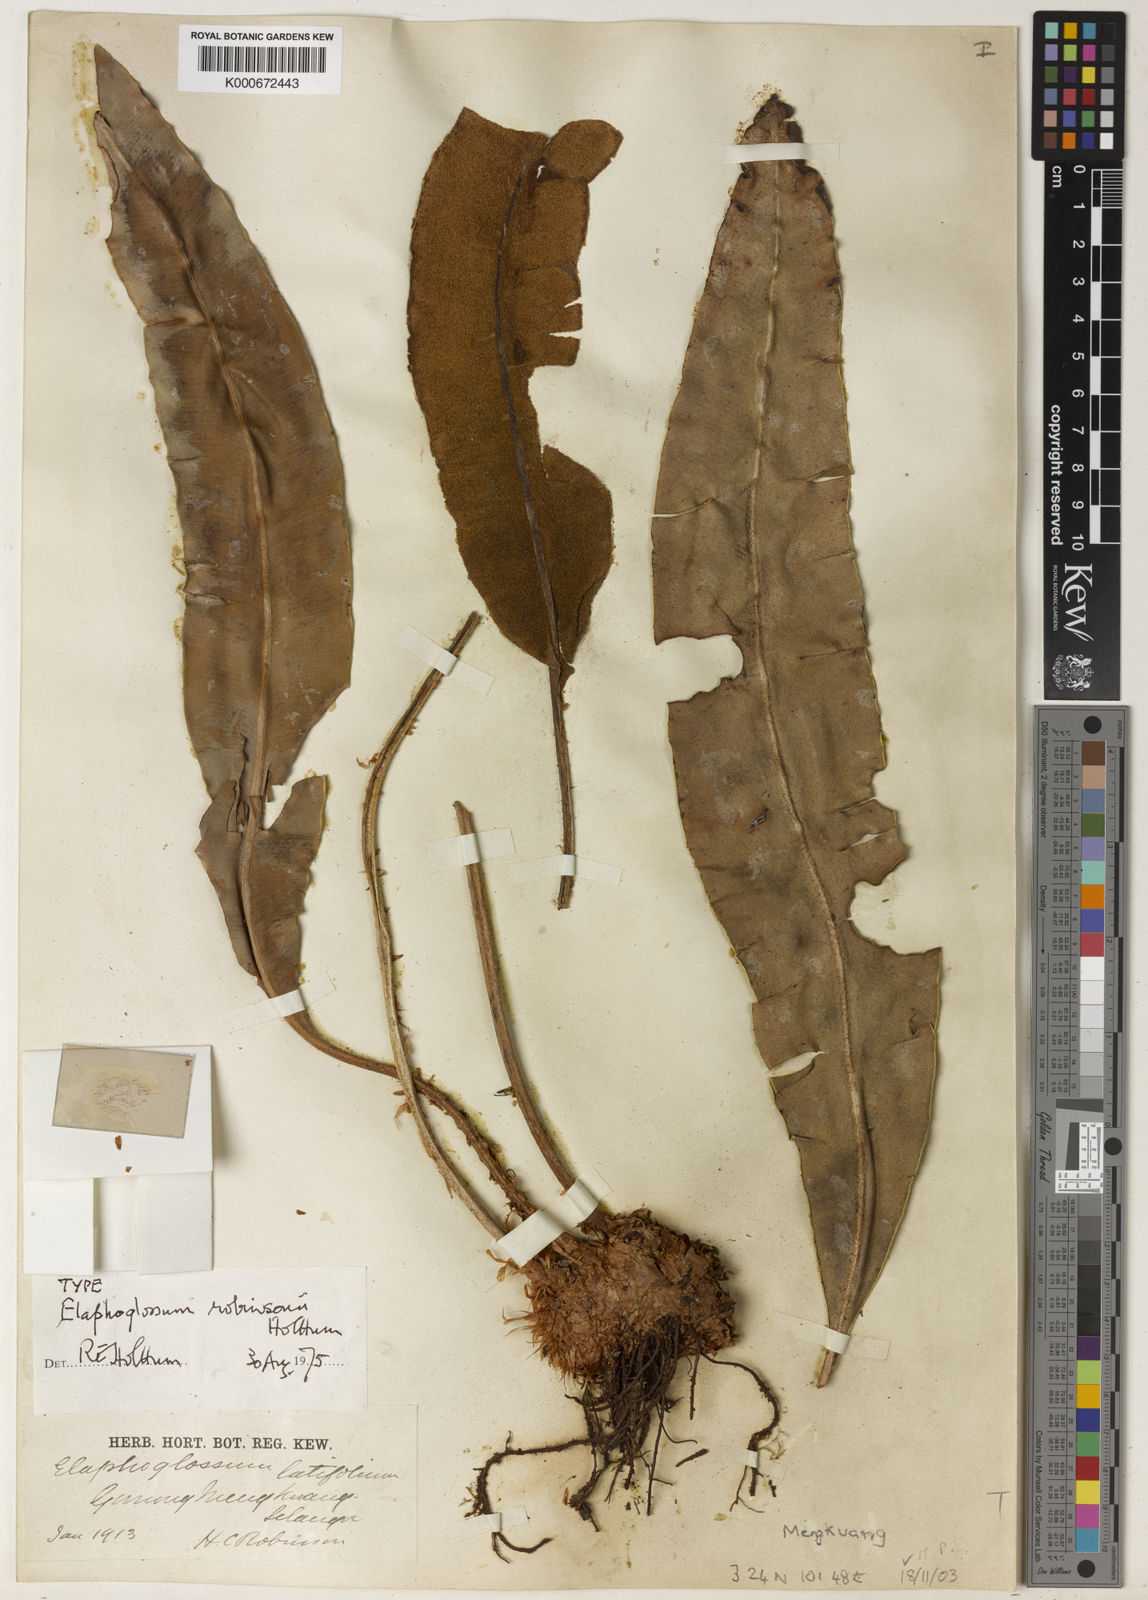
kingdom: Plantae
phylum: Tracheophyta
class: Polypodiopsida
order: Polypodiales
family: Dryopteridaceae
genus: Elaphoglossum
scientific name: Elaphoglossum robinsonii
